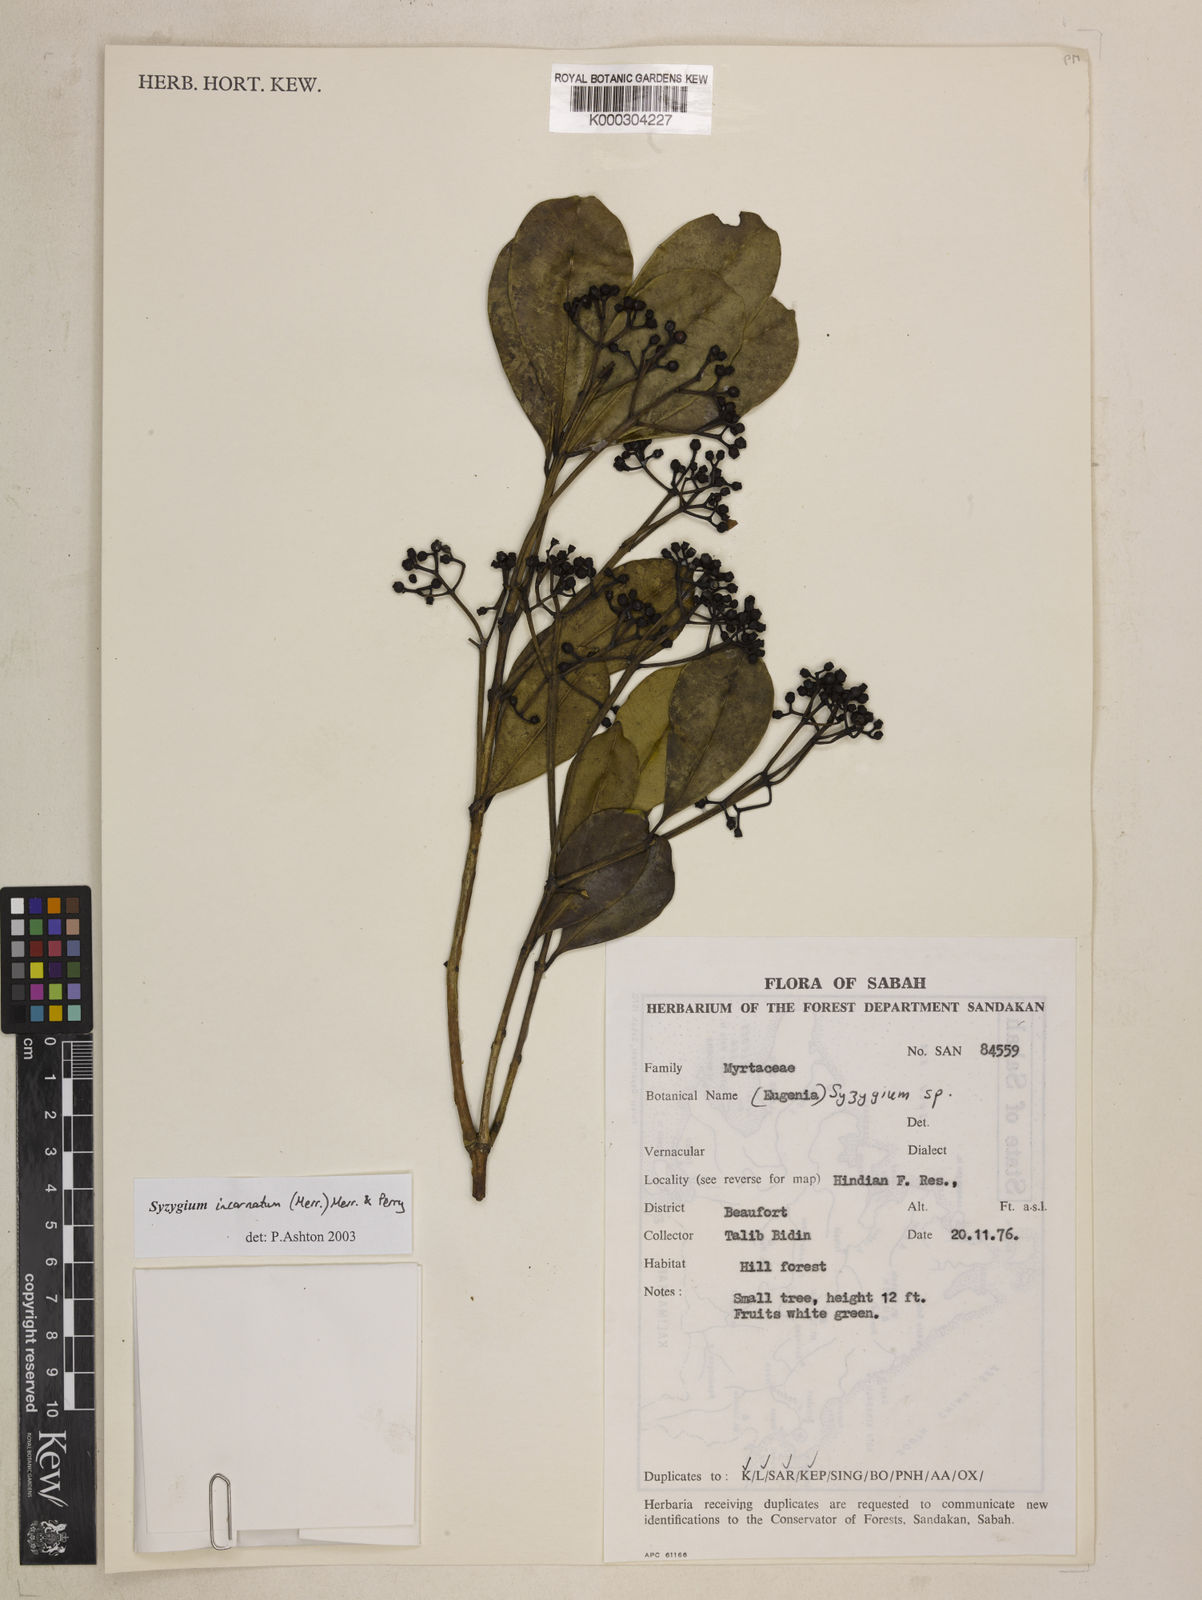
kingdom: Plantae
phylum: Tracheophyta
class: Magnoliopsida
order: Caryophyllales
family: Cactaceae
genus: Rhipsalis
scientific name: Rhipsalis teres
